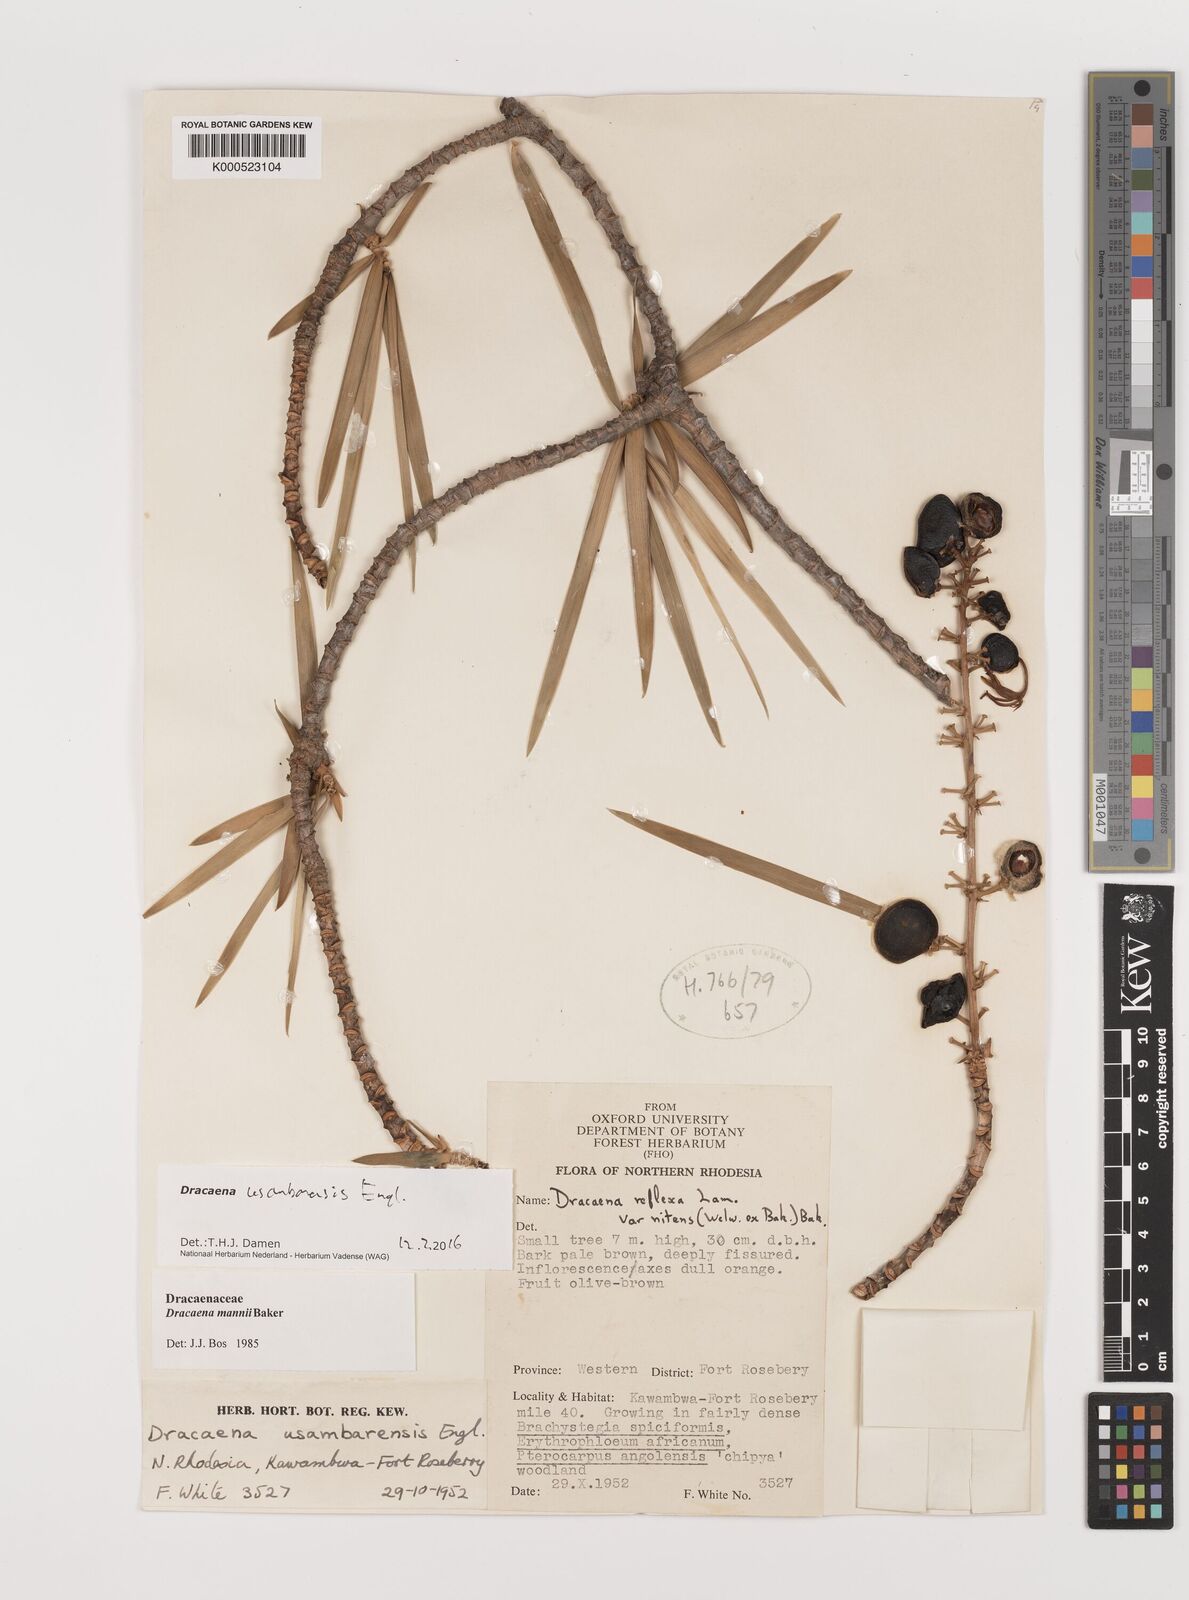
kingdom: Plantae
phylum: Tracheophyta
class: Liliopsida
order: Asparagales
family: Asparagaceae
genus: Dracaena
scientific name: Dracaena usambarensis
